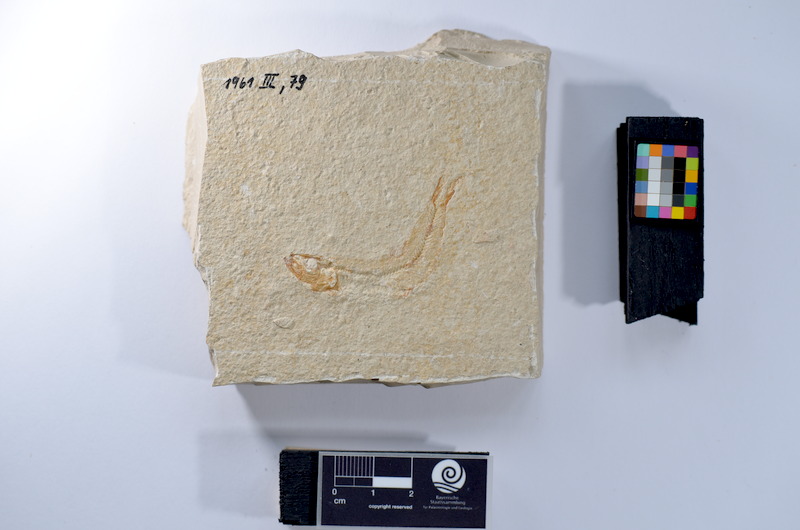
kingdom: Animalia
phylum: Chordata
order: Salmoniformes
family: Orthogonikleithridae
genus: Leptolepides
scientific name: Leptolepides
